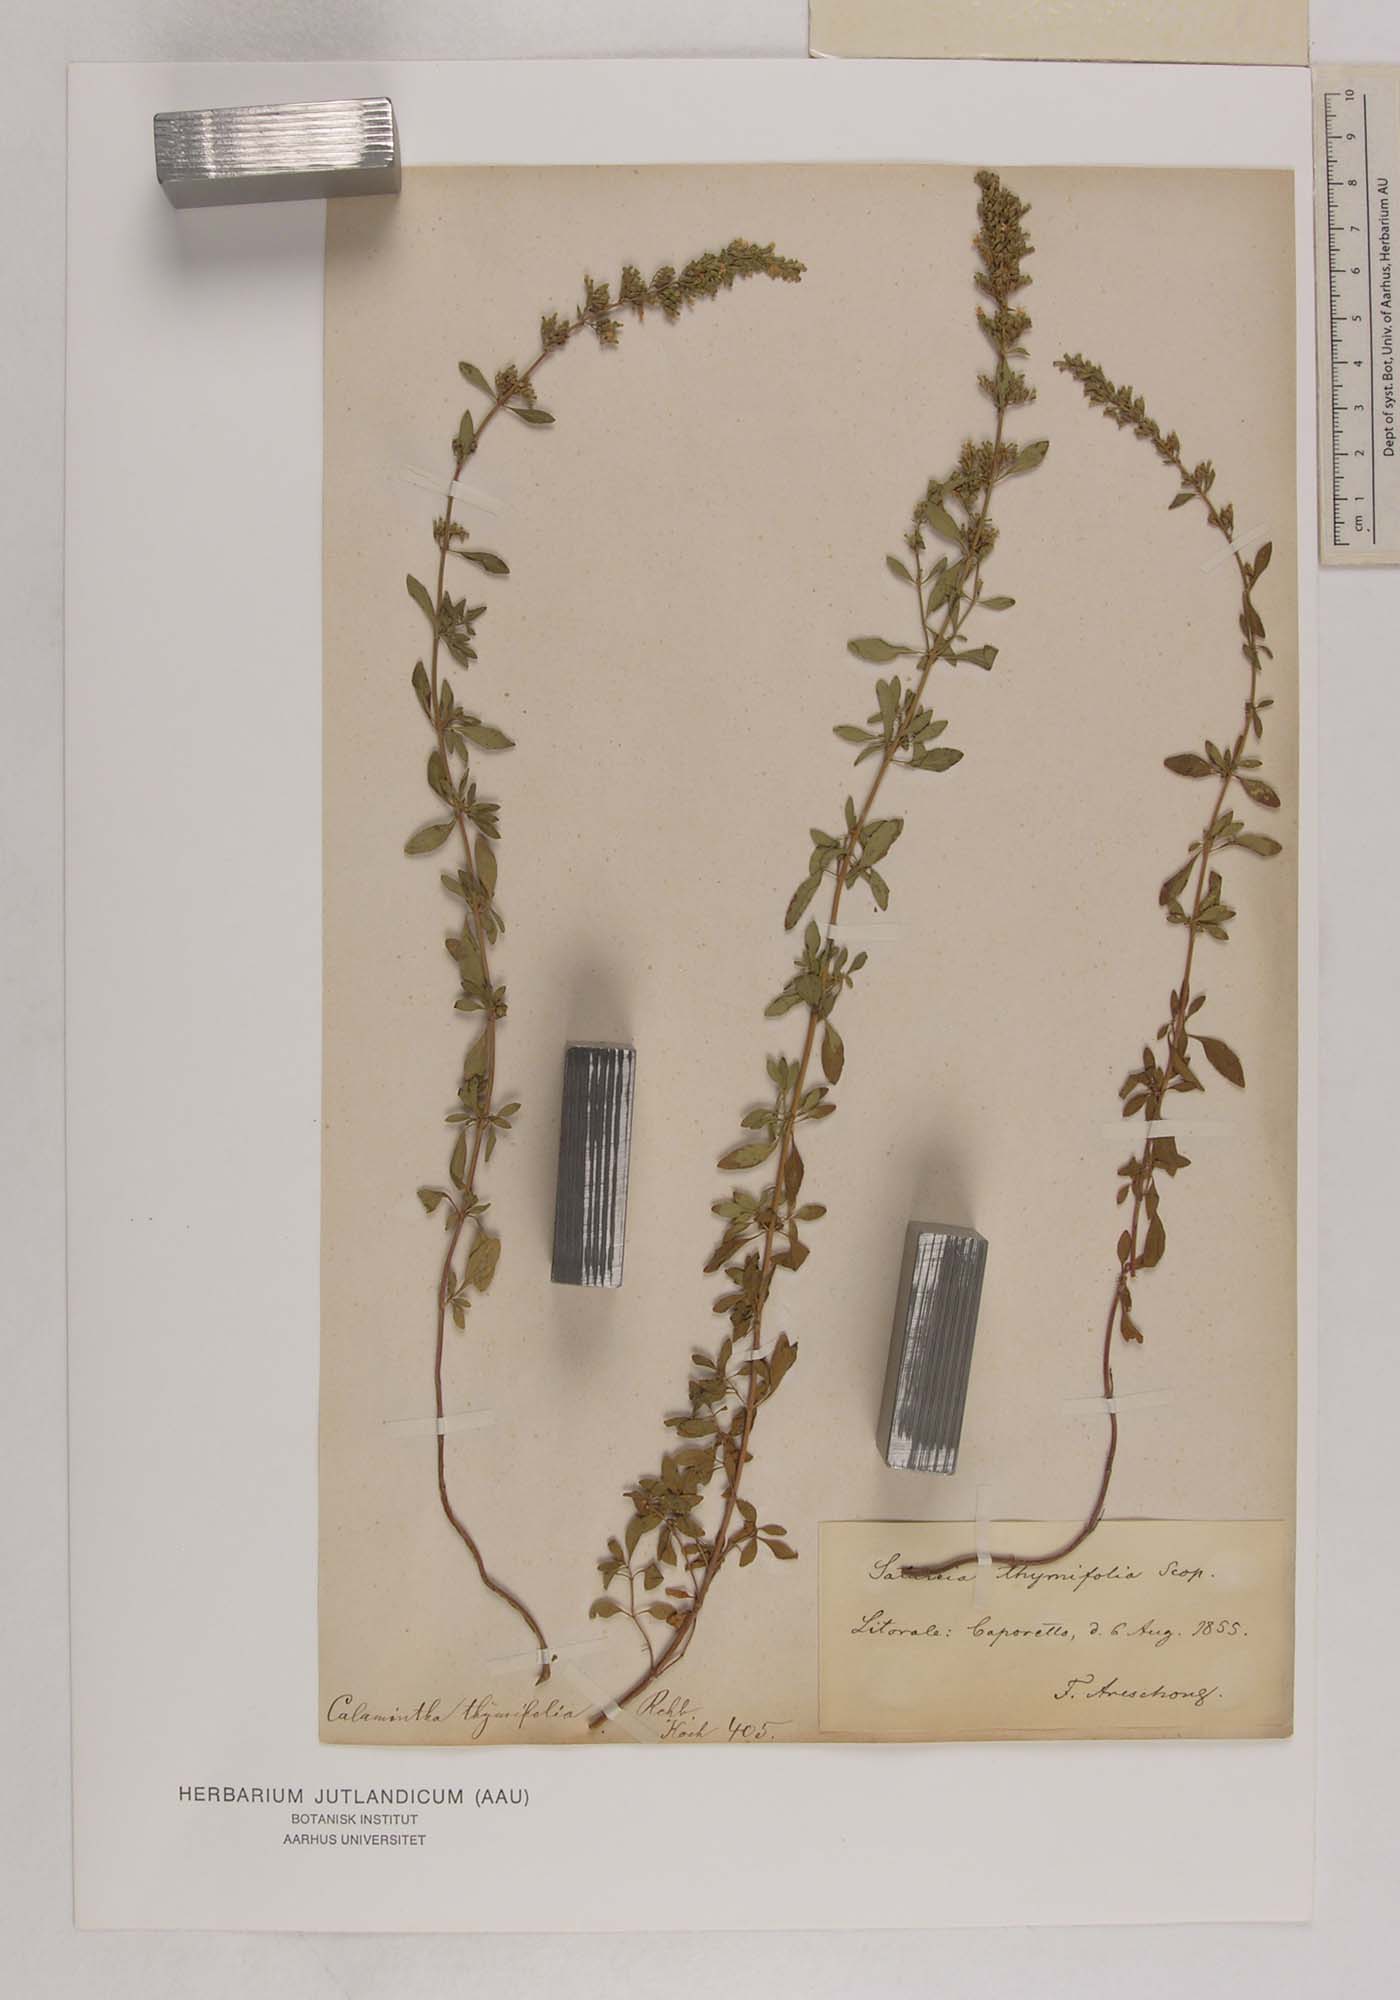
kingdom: Plantae
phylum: Tracheophyta
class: Magnoliopsida
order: Lamiales
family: Lamiaceae
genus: Clinopodium
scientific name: Clinopodium album
